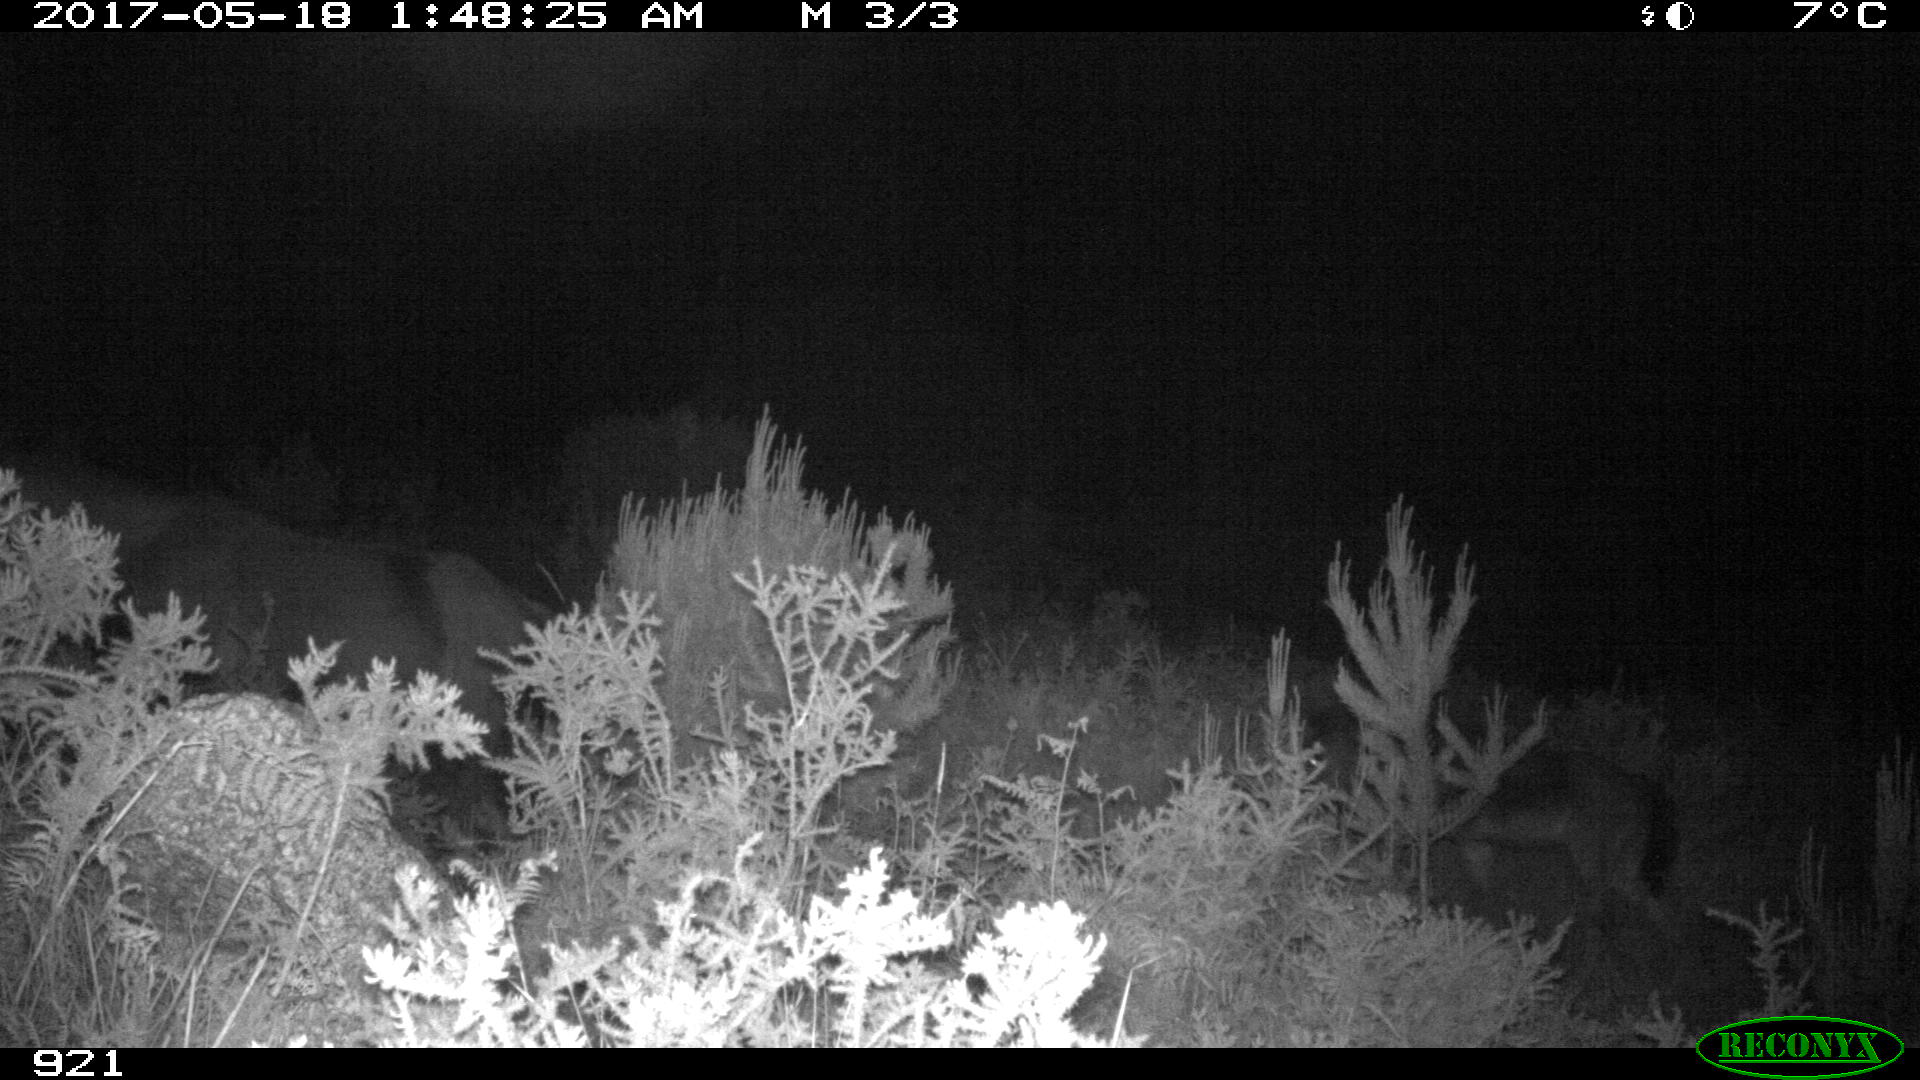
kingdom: Animalia
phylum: Chordata
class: Mammalia
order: Perissodactyla
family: Equidae
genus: Equus
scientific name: Equus caballus
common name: Horse
